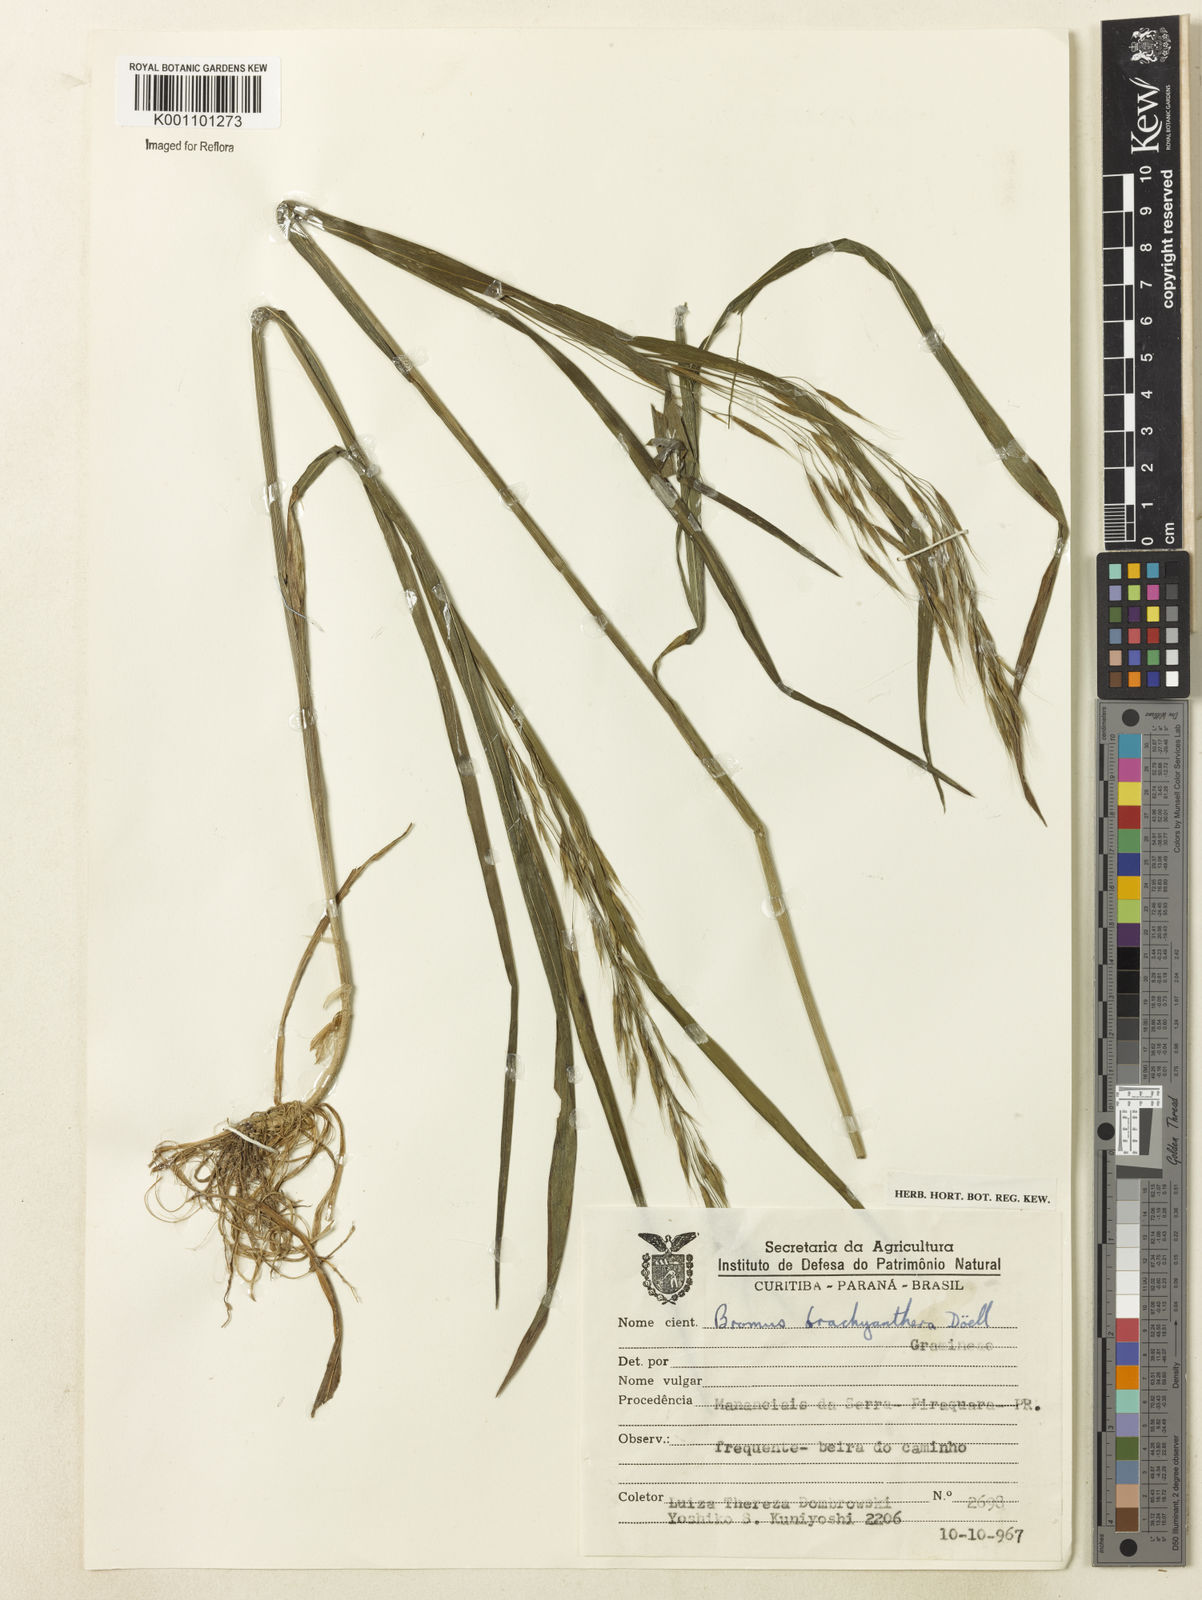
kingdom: Plantae
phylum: Tracheophyta
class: Liliopsida
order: Poales
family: Poaceae
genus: Bromus
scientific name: Bromus
